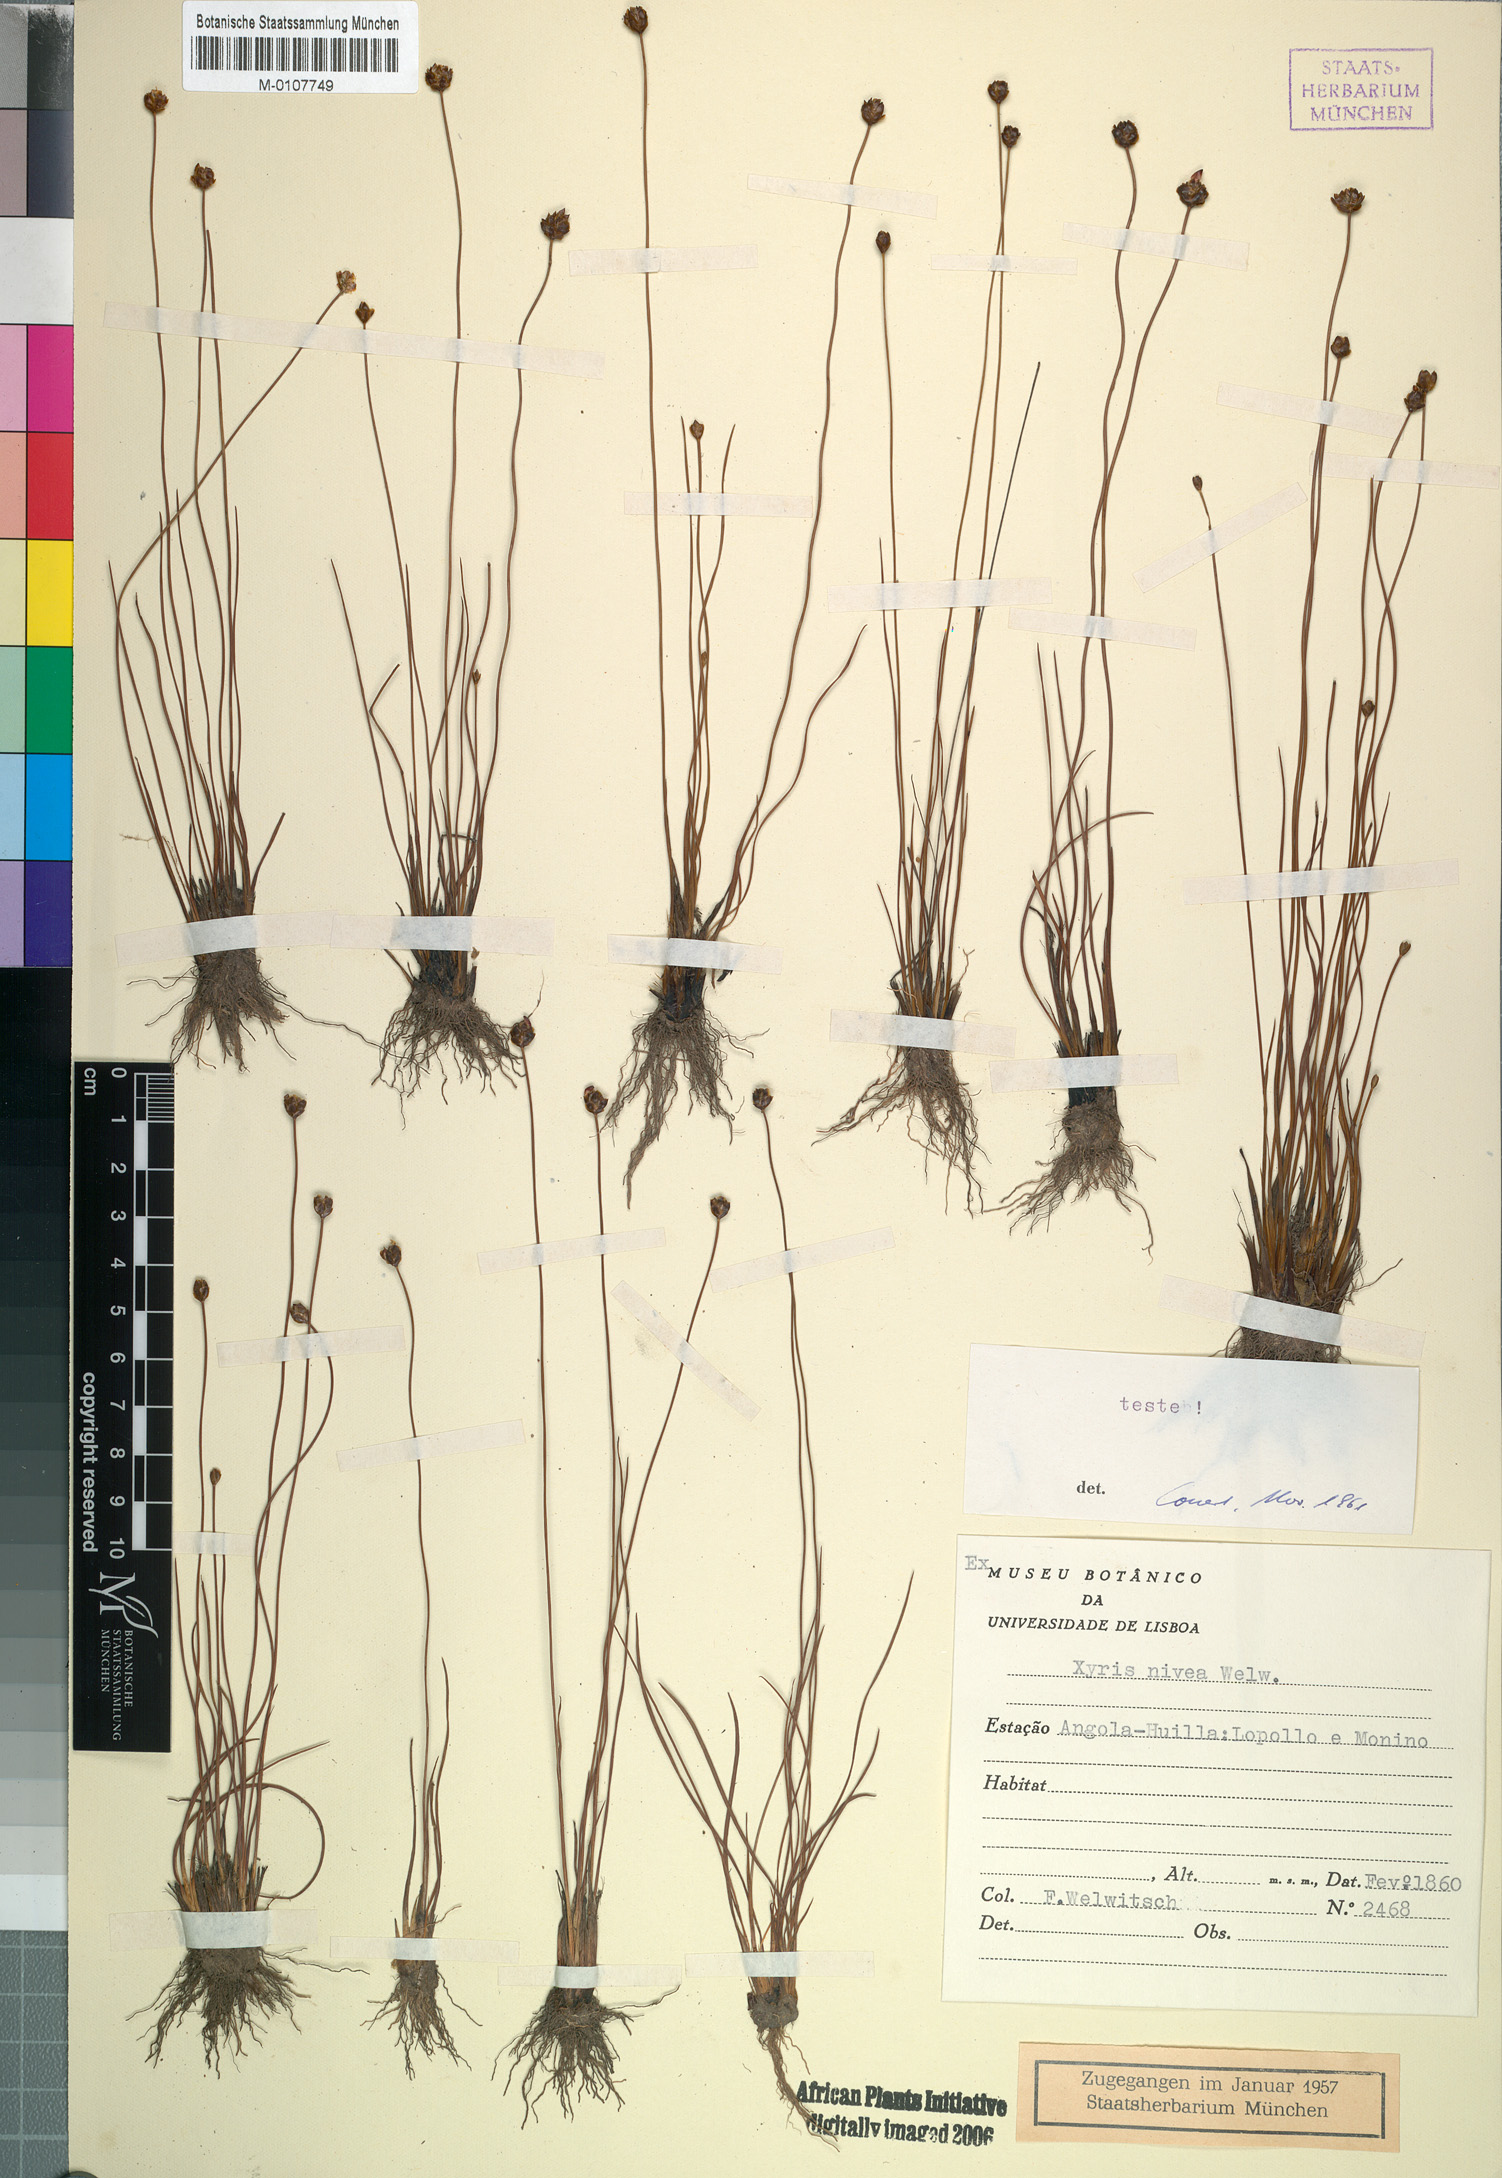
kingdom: Plantae
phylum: Tracheophyta
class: Liliopsida
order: Poales
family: Xyridaceae
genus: Xyris
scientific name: Xyris nivea
